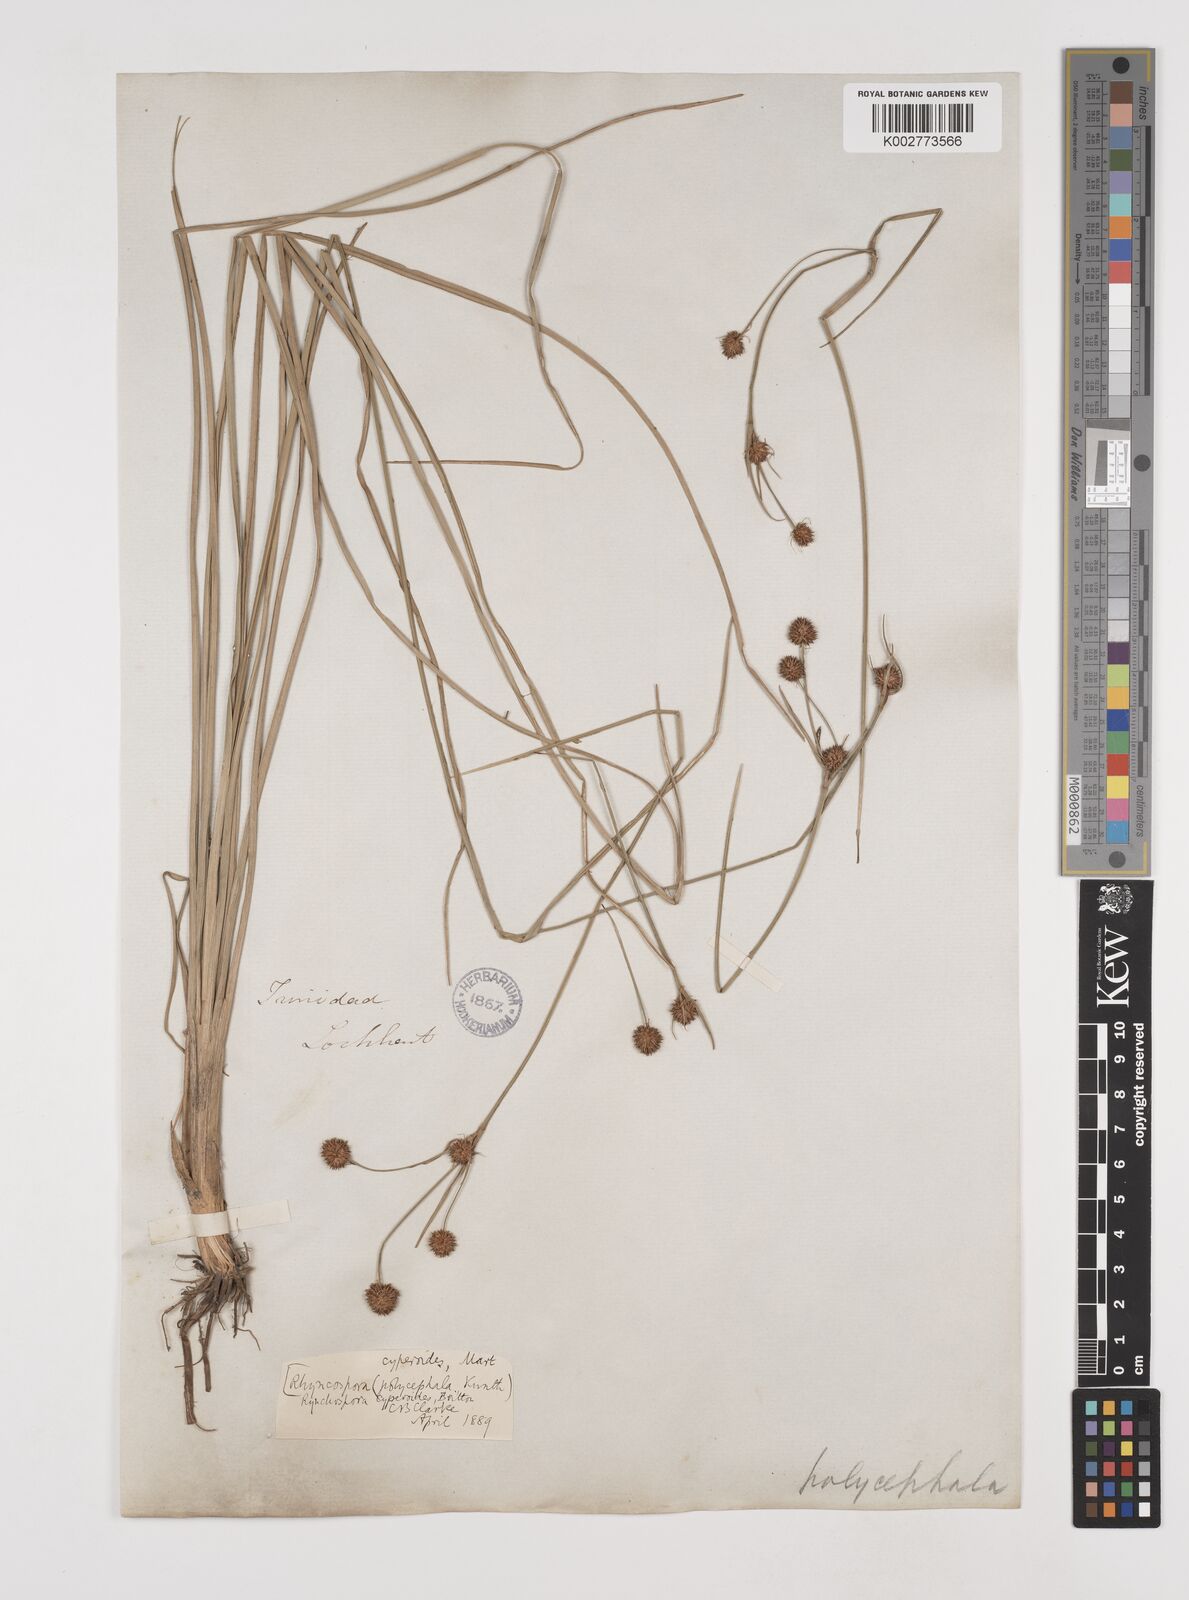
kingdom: Plantae
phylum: Tracheophyta
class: Liliopsida
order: Poales
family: Cyperaceae
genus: Rhynchospora
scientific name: Rhynchospora holoschoenoides
